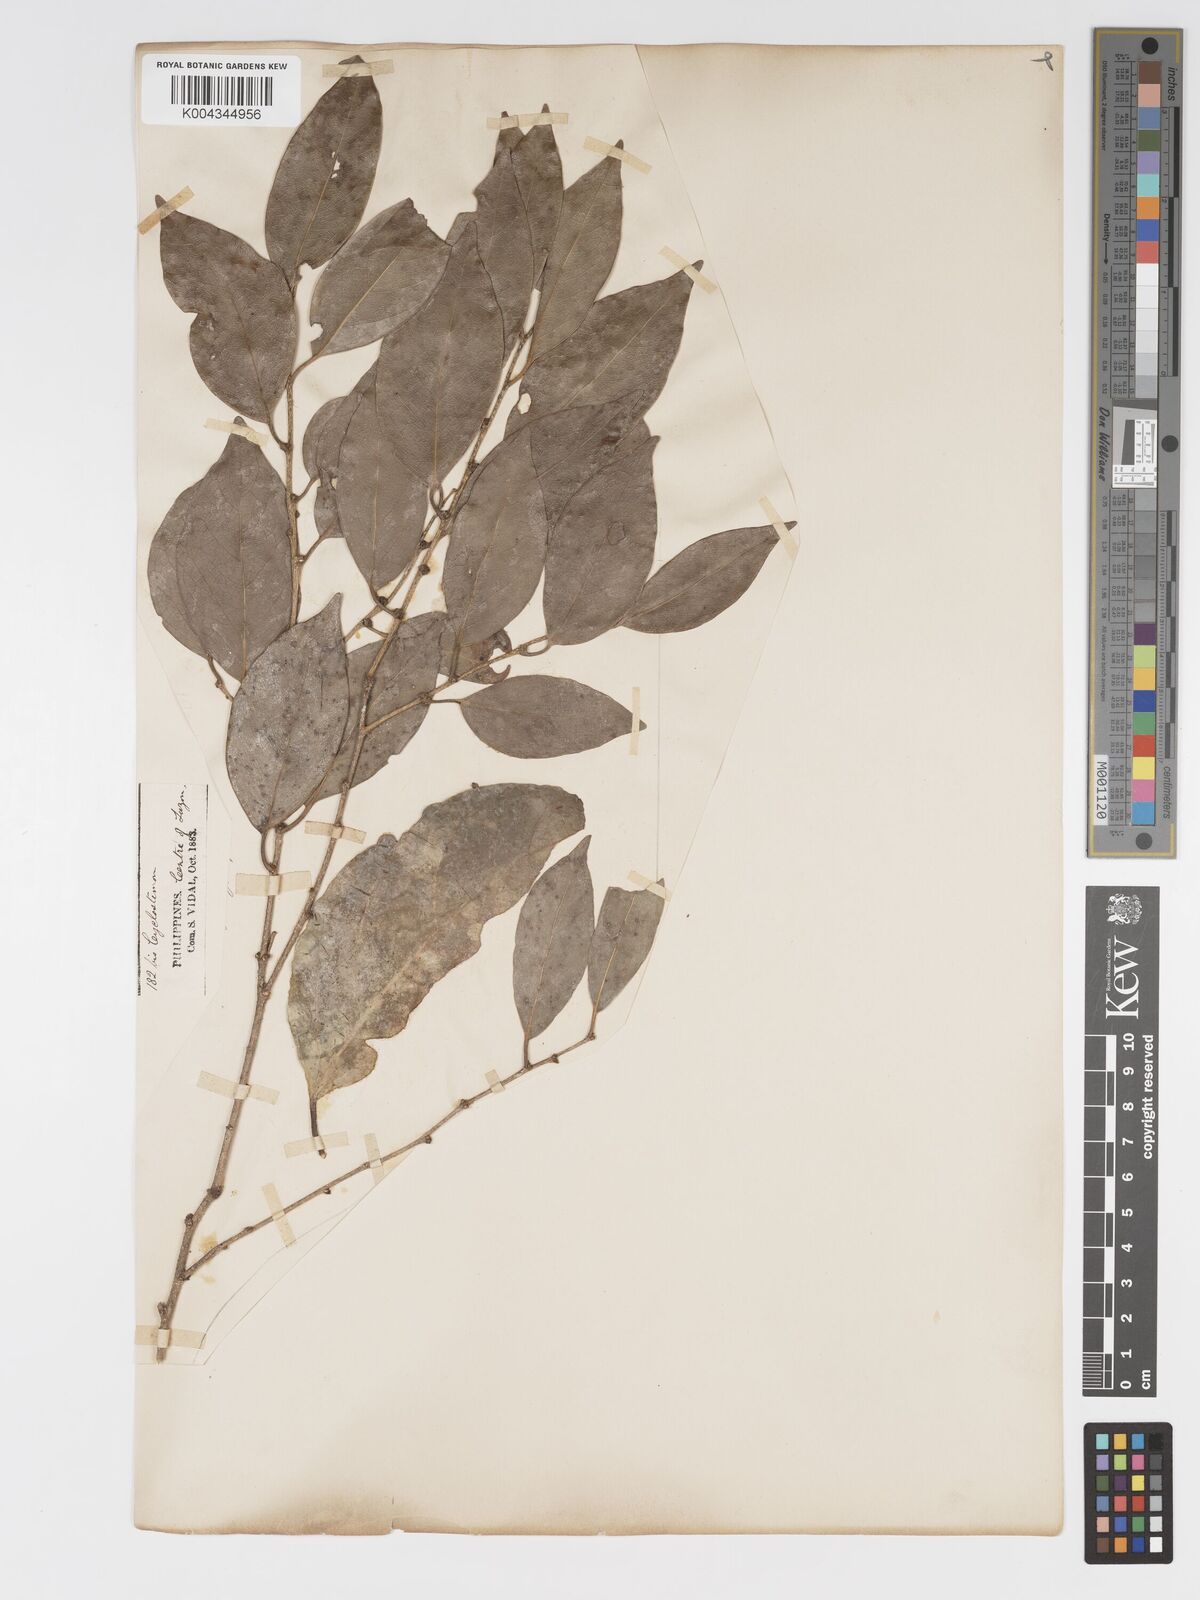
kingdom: Plantae
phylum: Tracheophyta
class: Magnoliopsida
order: Malpighiales
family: Putranjivaceae
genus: Drypetes
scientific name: Drypetes littoralis
